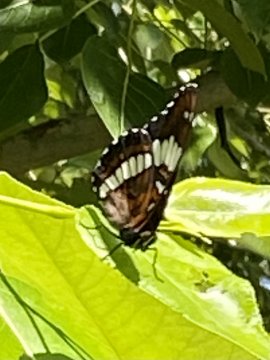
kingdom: Animalia
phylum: Arthropoda
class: Insecta
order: Lepidoptera
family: Nymphalidae
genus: Limenitis
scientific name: Limenitis arthemis
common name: Red-spotted Admiral
